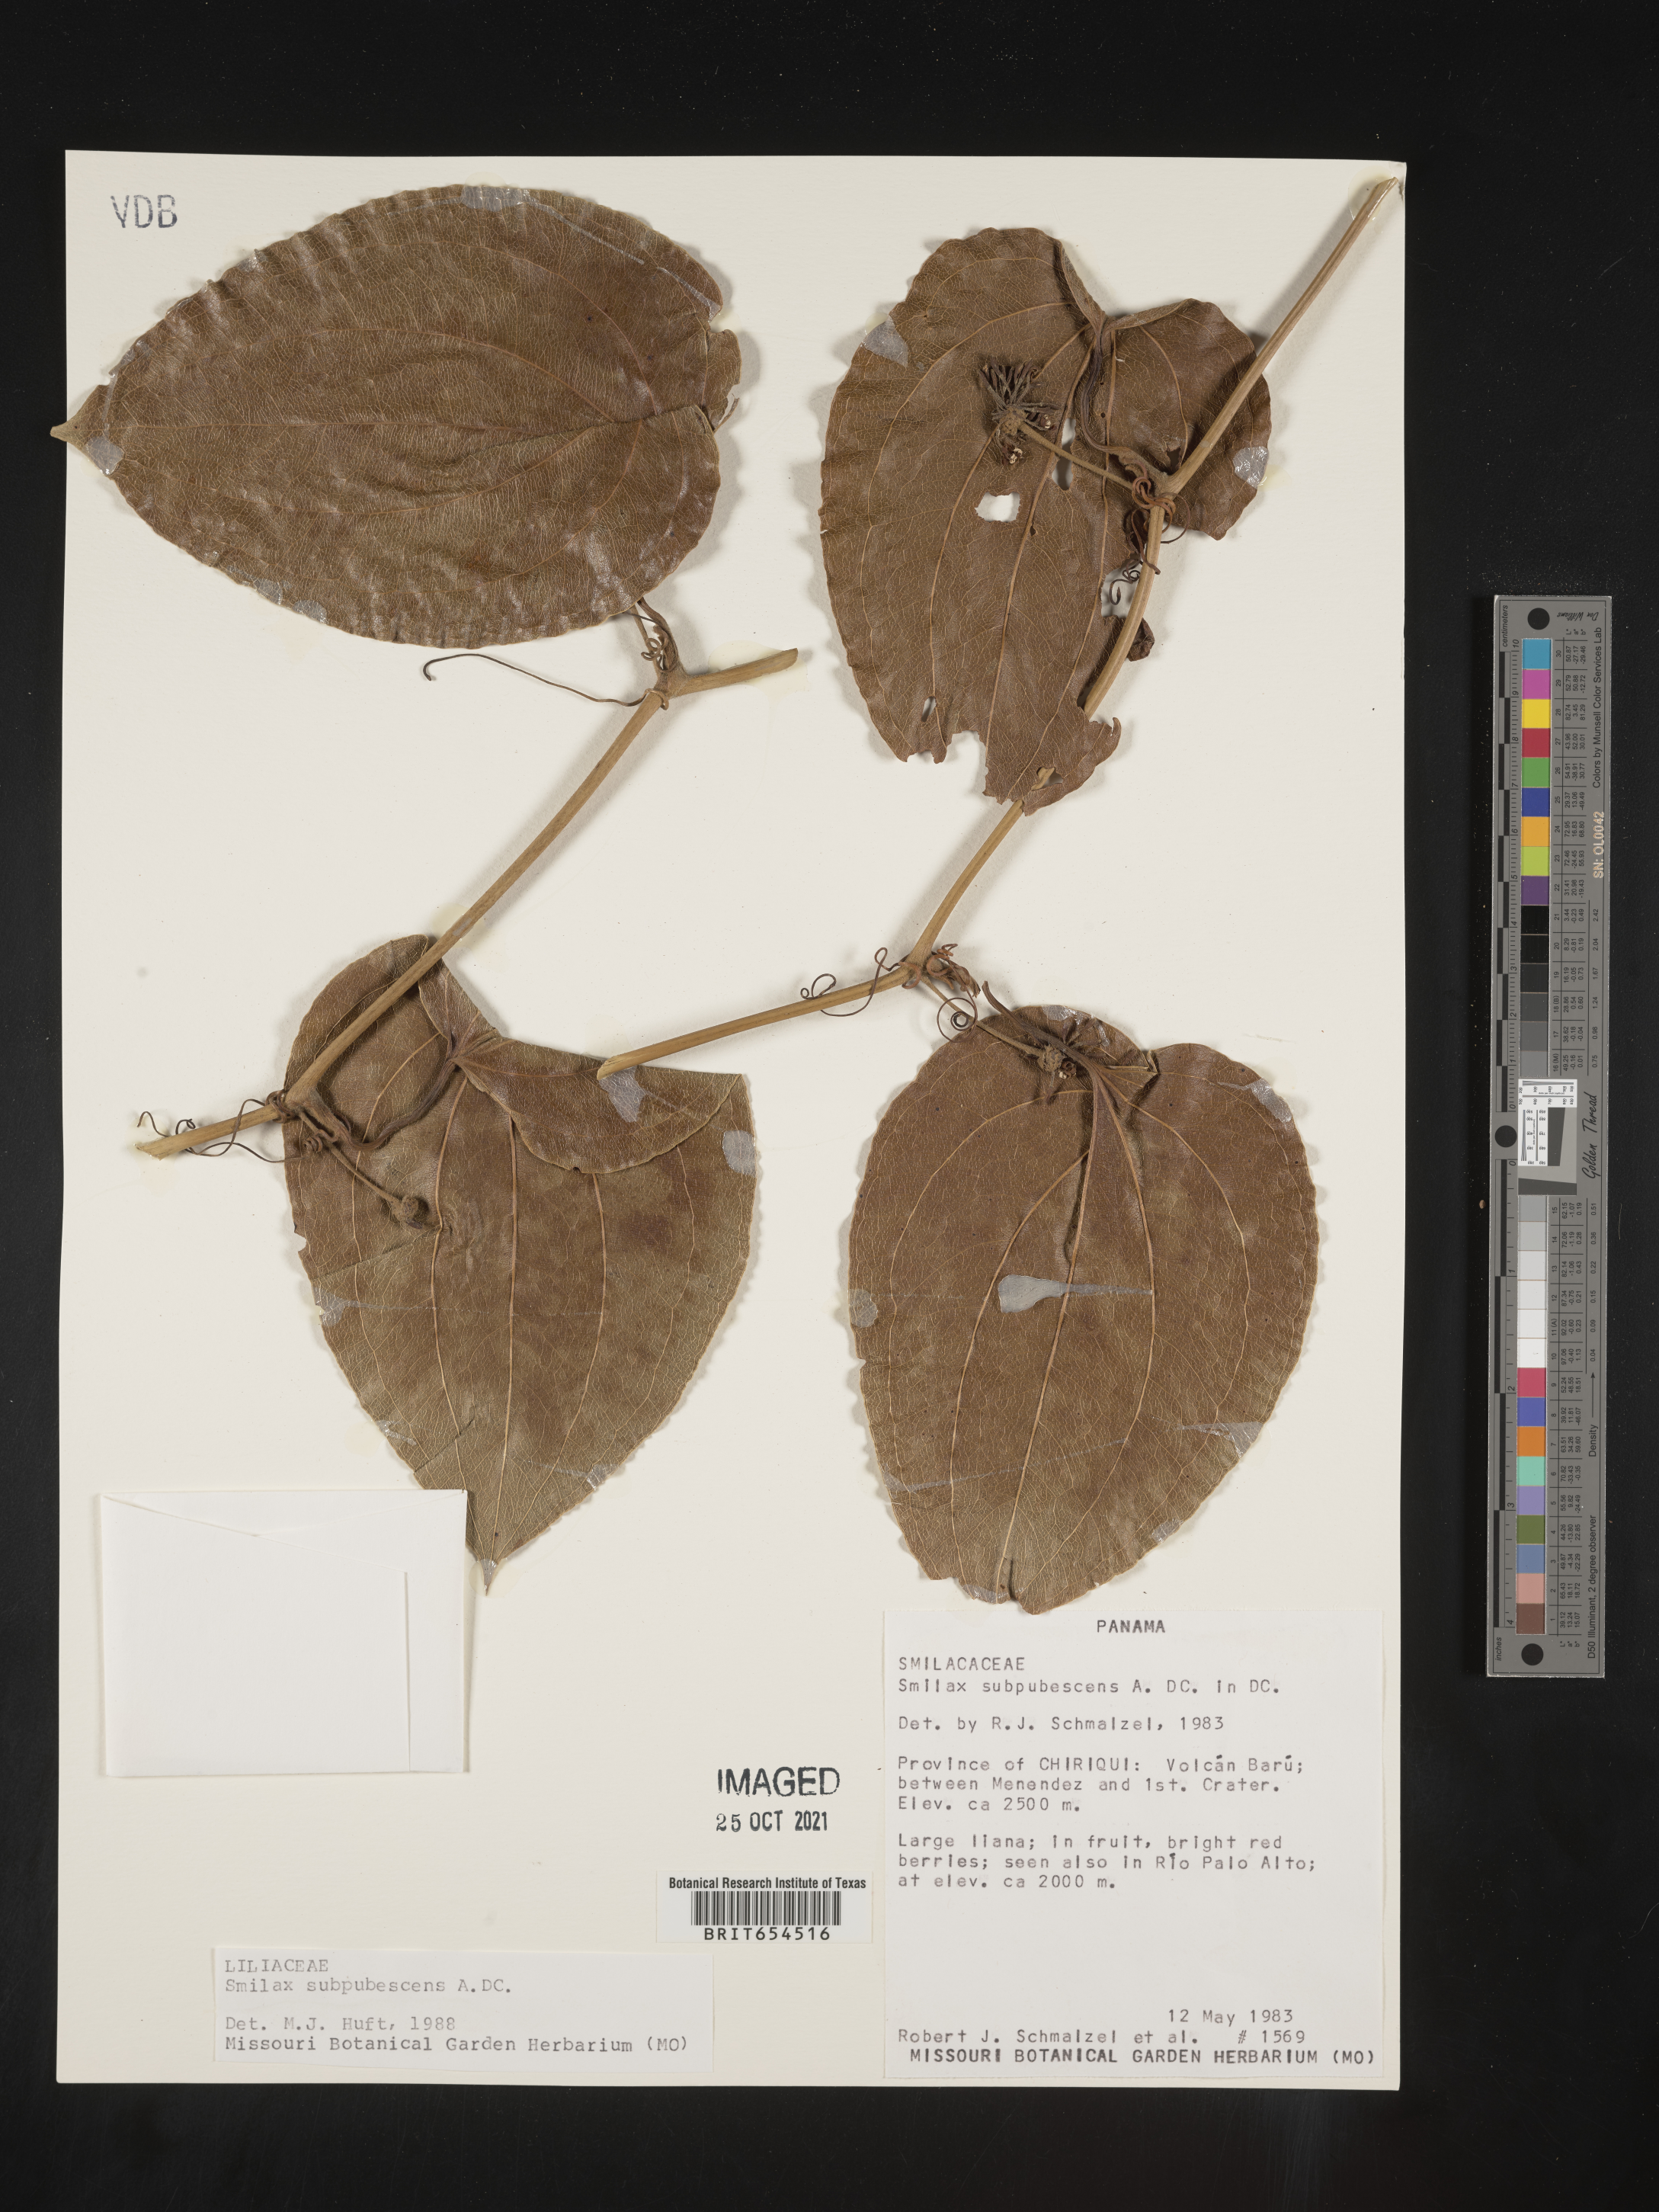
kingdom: Plantae
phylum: Tracheophyta
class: Liliopsida
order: Liliales
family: Smilacaceae
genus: Smilax
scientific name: Smilax
